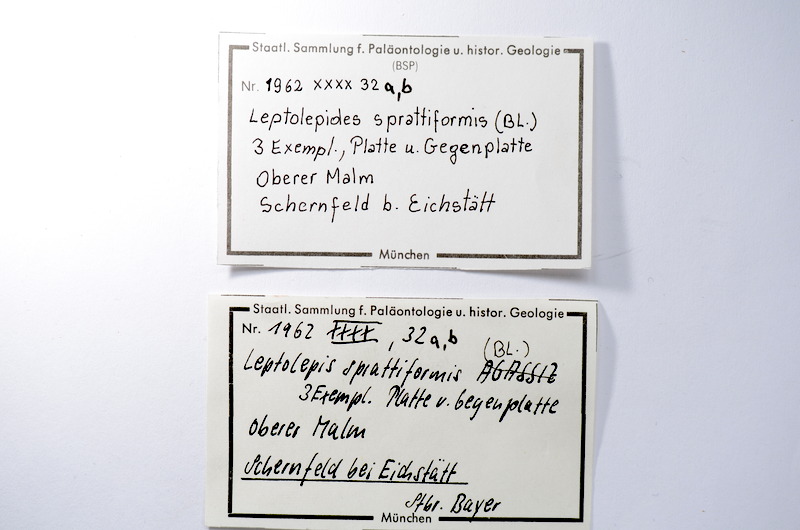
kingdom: Animalia
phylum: Chordata
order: Salmoniformes
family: Orthogonikleithridae
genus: Leptolepides
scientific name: Leptolepides sprattiformis
